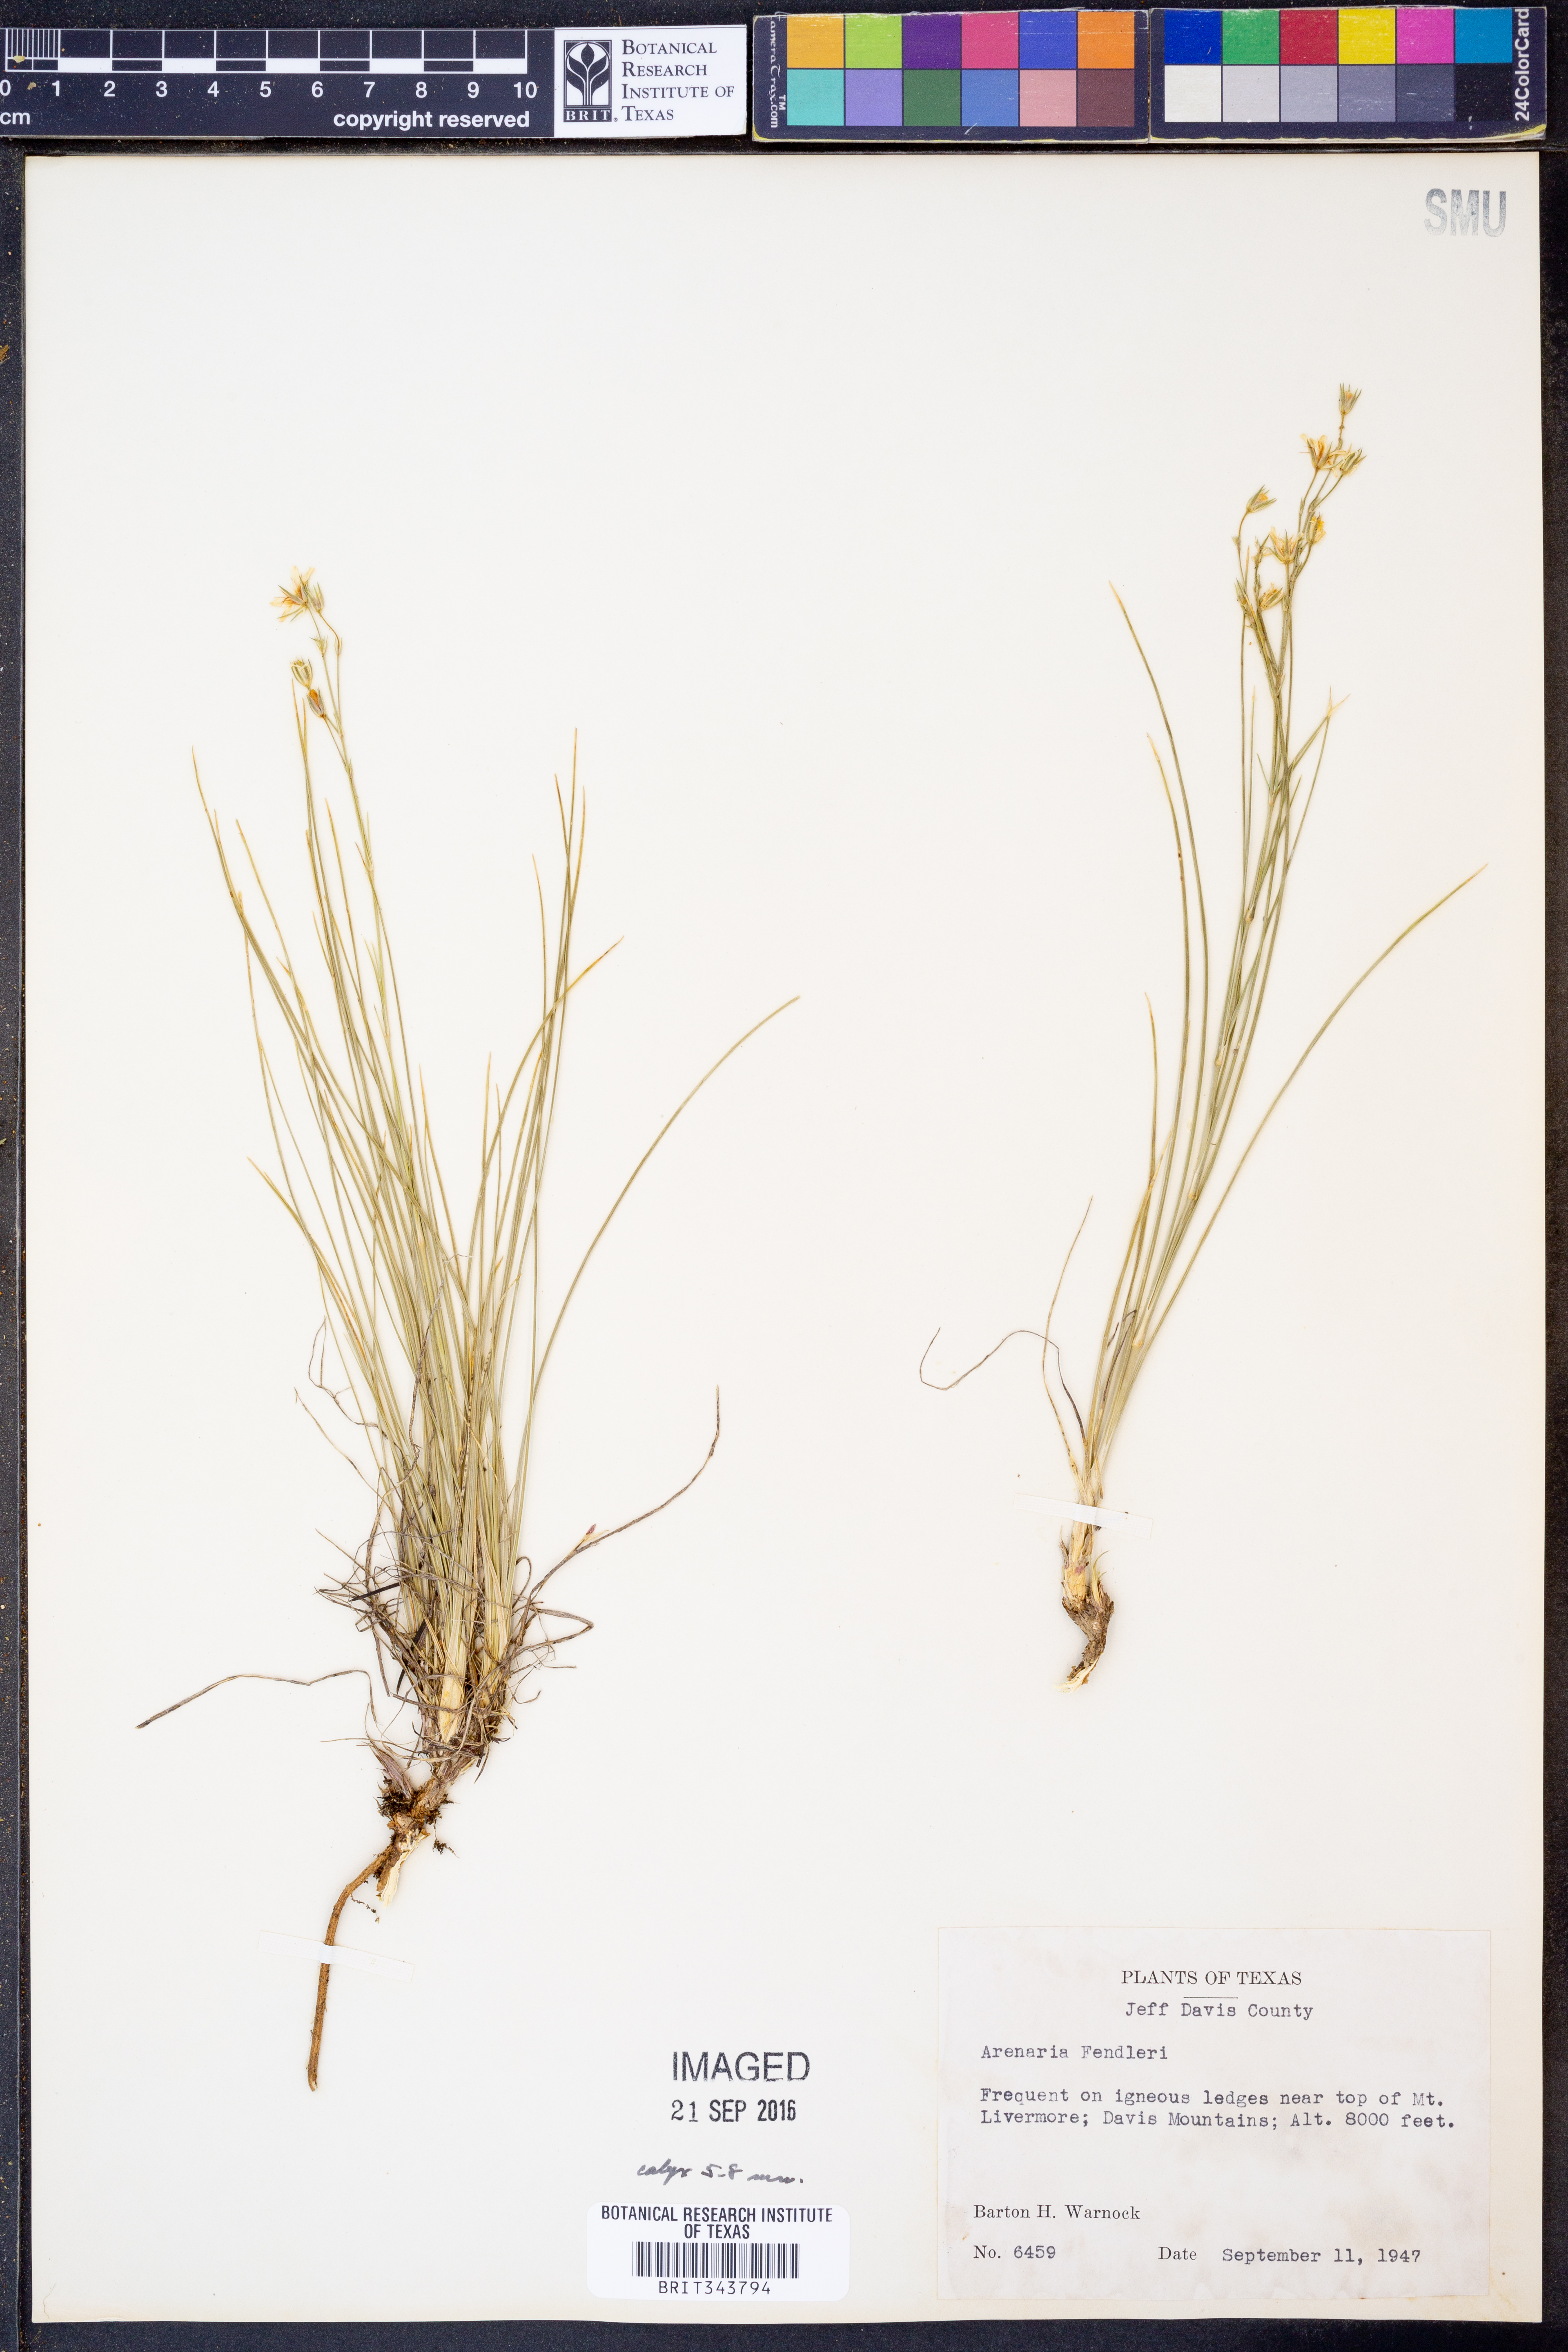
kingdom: Plantae
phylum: Tracheophyta
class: Magnoliopsida
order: Caryophyllales
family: Caryophyllaceae
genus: Eremogone
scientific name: Eremogone fendleri
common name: Fendler's sandwort
